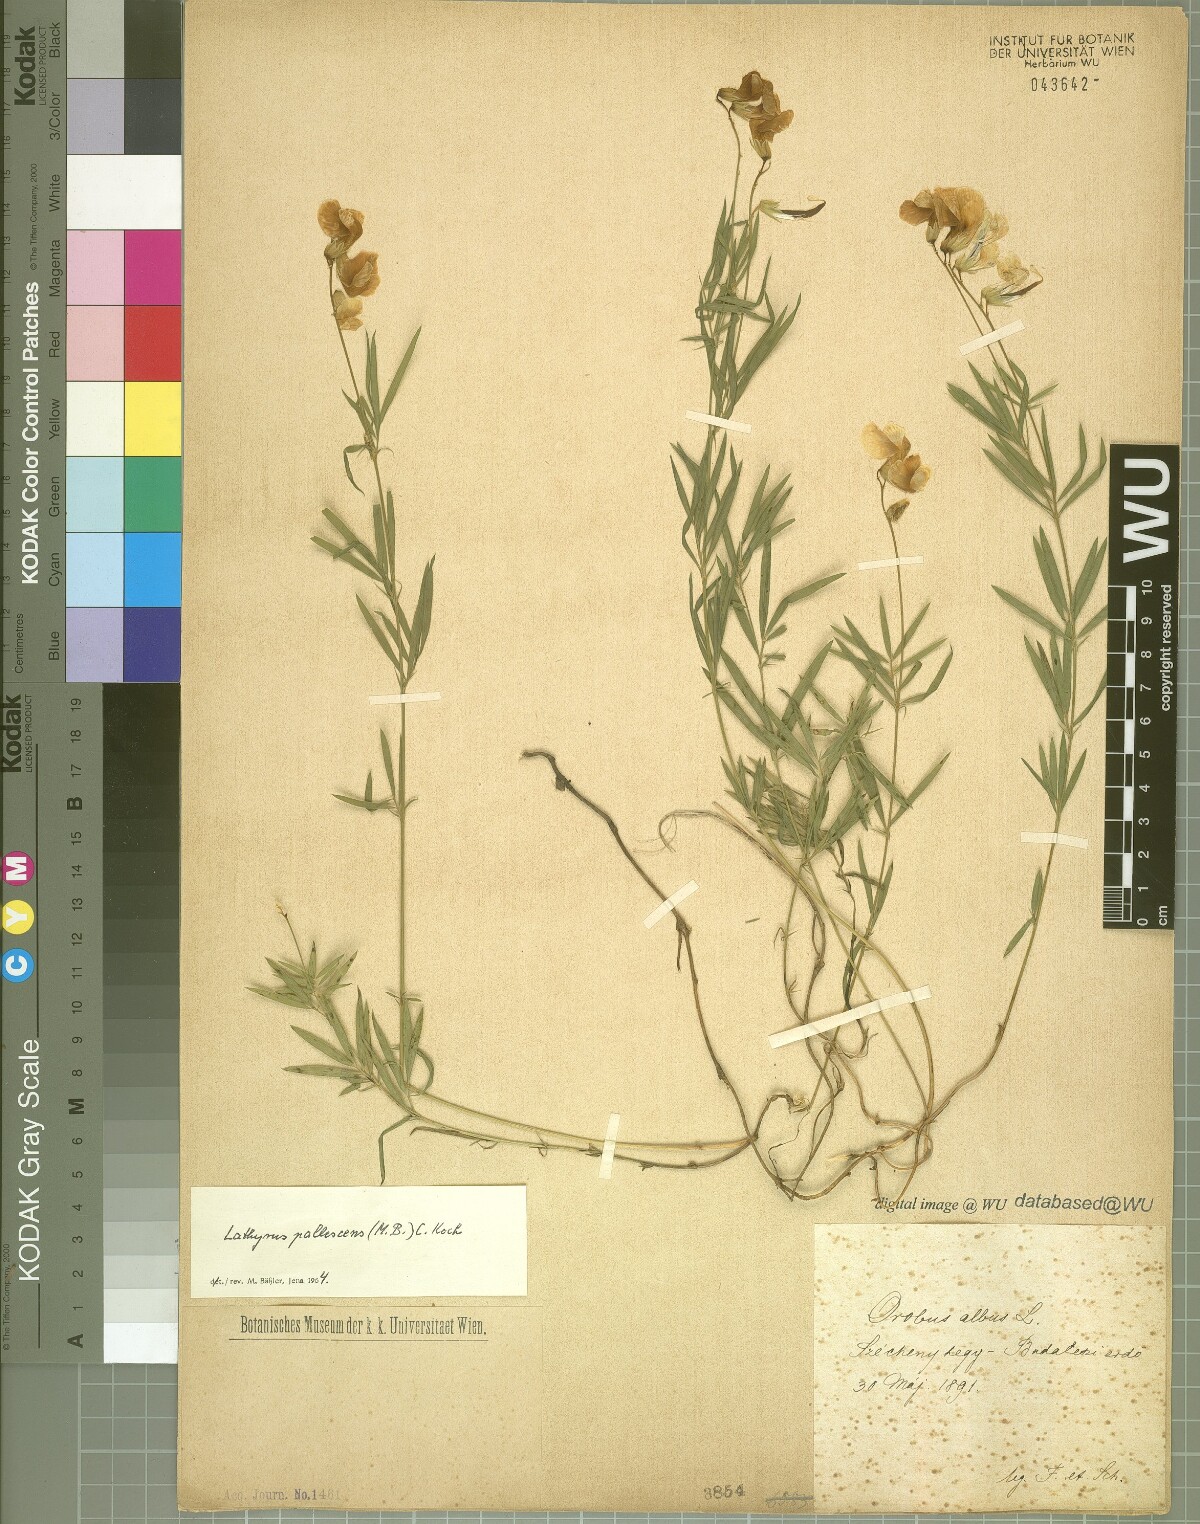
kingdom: Plantae
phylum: Tracheophyta
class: Magnoliopsida
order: Fabales
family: Fabaceae
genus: Lathyrus
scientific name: Lathyrus pallescens
